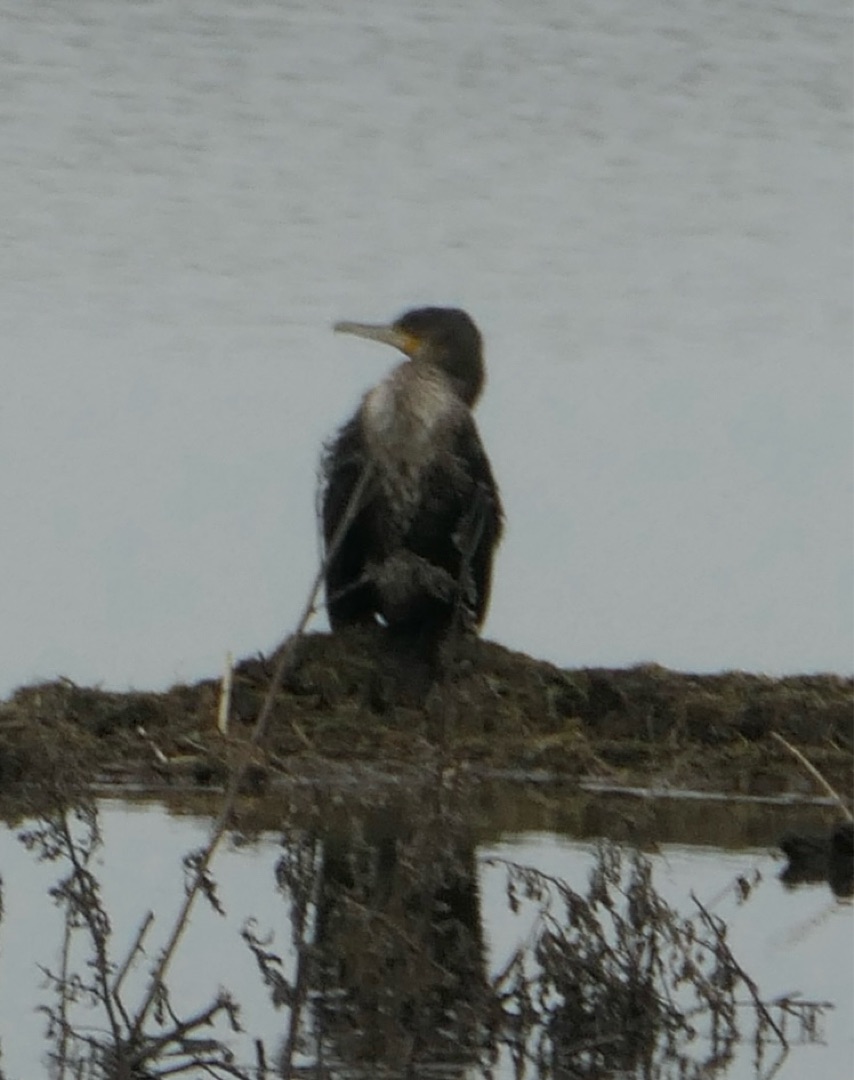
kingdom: Animalia
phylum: Chordata
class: Aves
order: Suliformes
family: Phalacrocoracidae
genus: Phalacrocorax
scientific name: Phalacrocorax carbo
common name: Skarv
